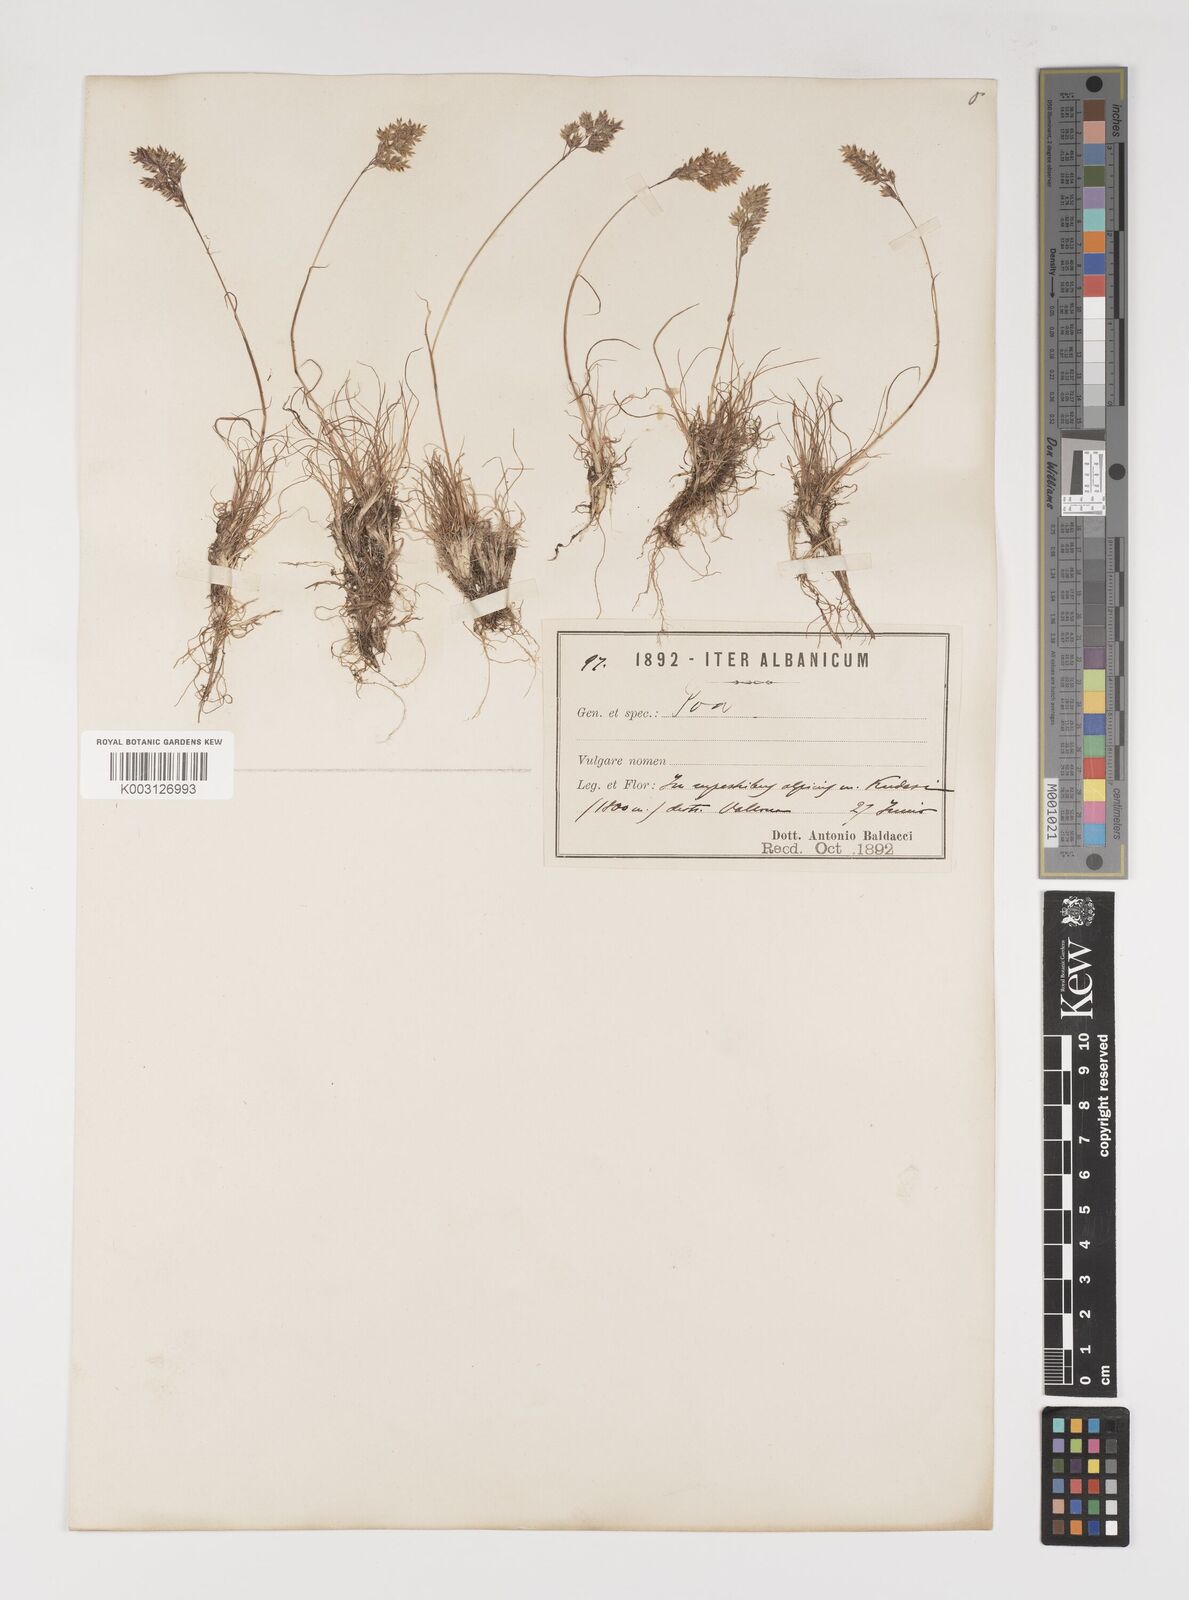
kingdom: Plantae
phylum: Tracheophyta
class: Liliopsida
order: Poales
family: Poaceae
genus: Poa
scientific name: Poa timoleontis
